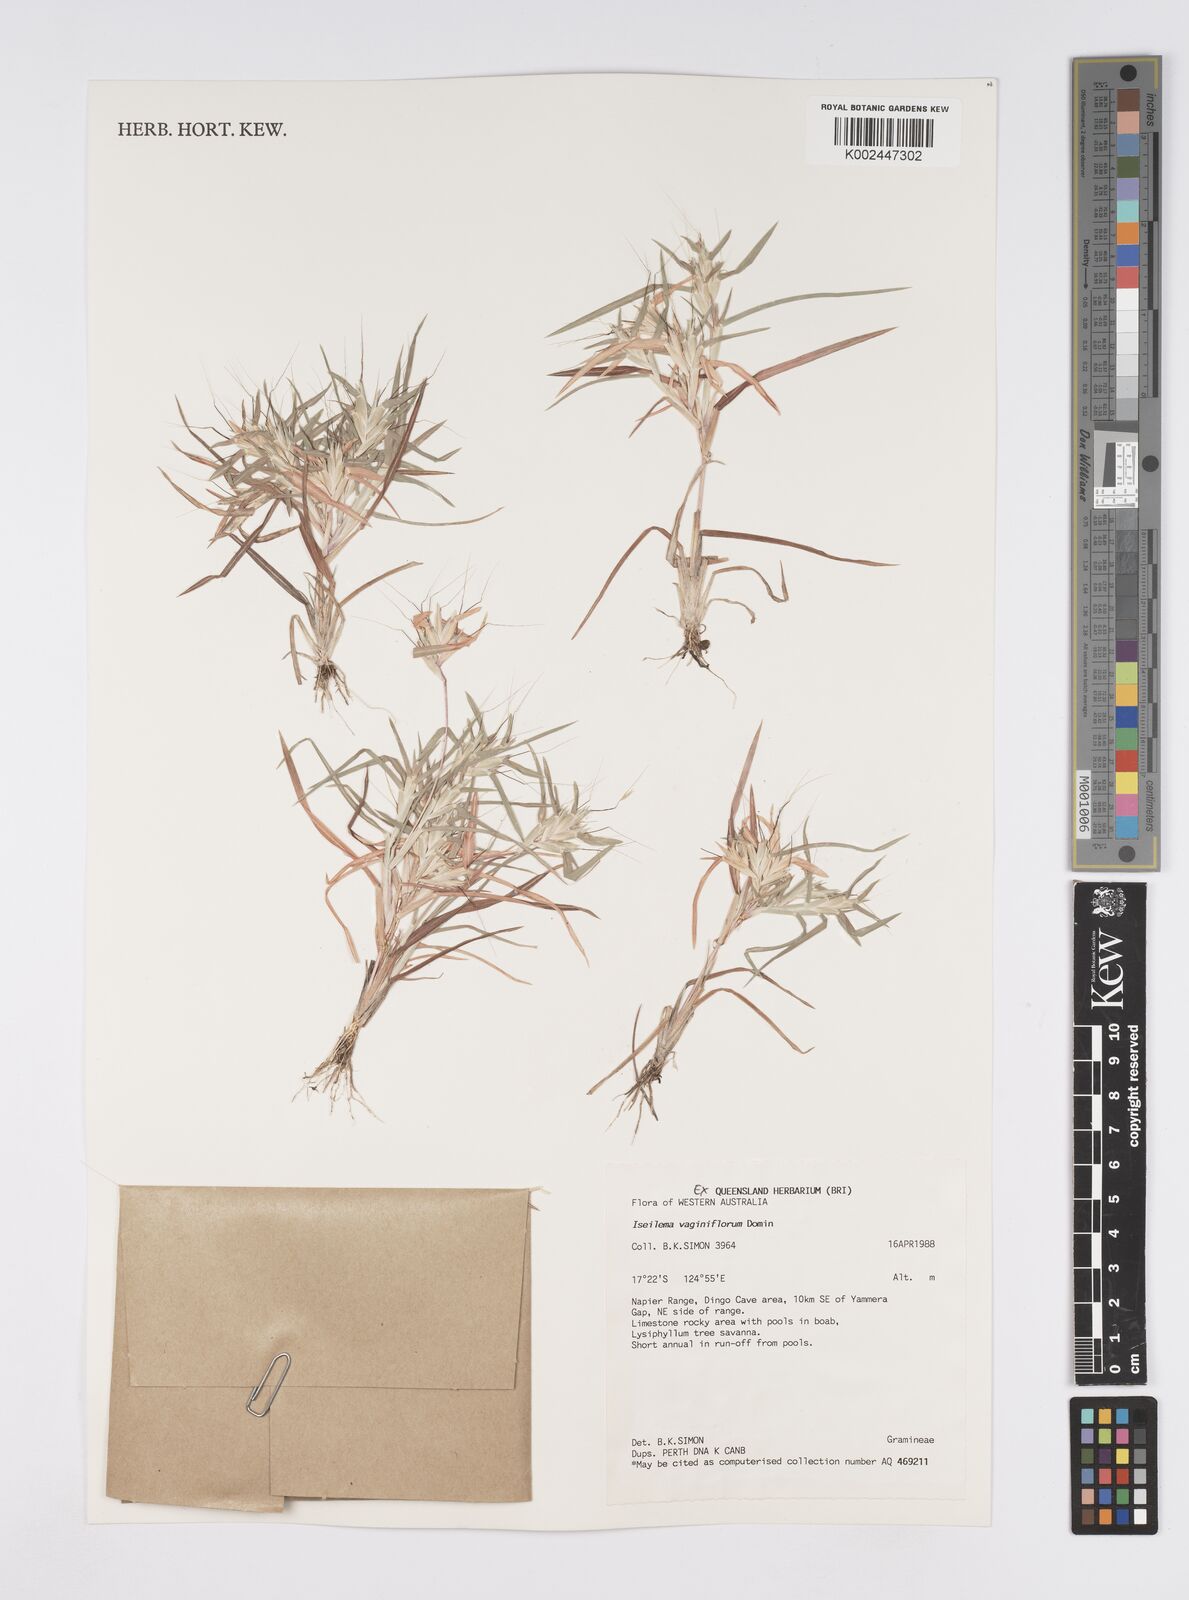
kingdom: Plantae
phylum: Tracheophyta
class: Liliopsida
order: Poales
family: Poaceae
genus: Iseilema
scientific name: Iseilema vaginiflorum
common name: Red flinders grass
